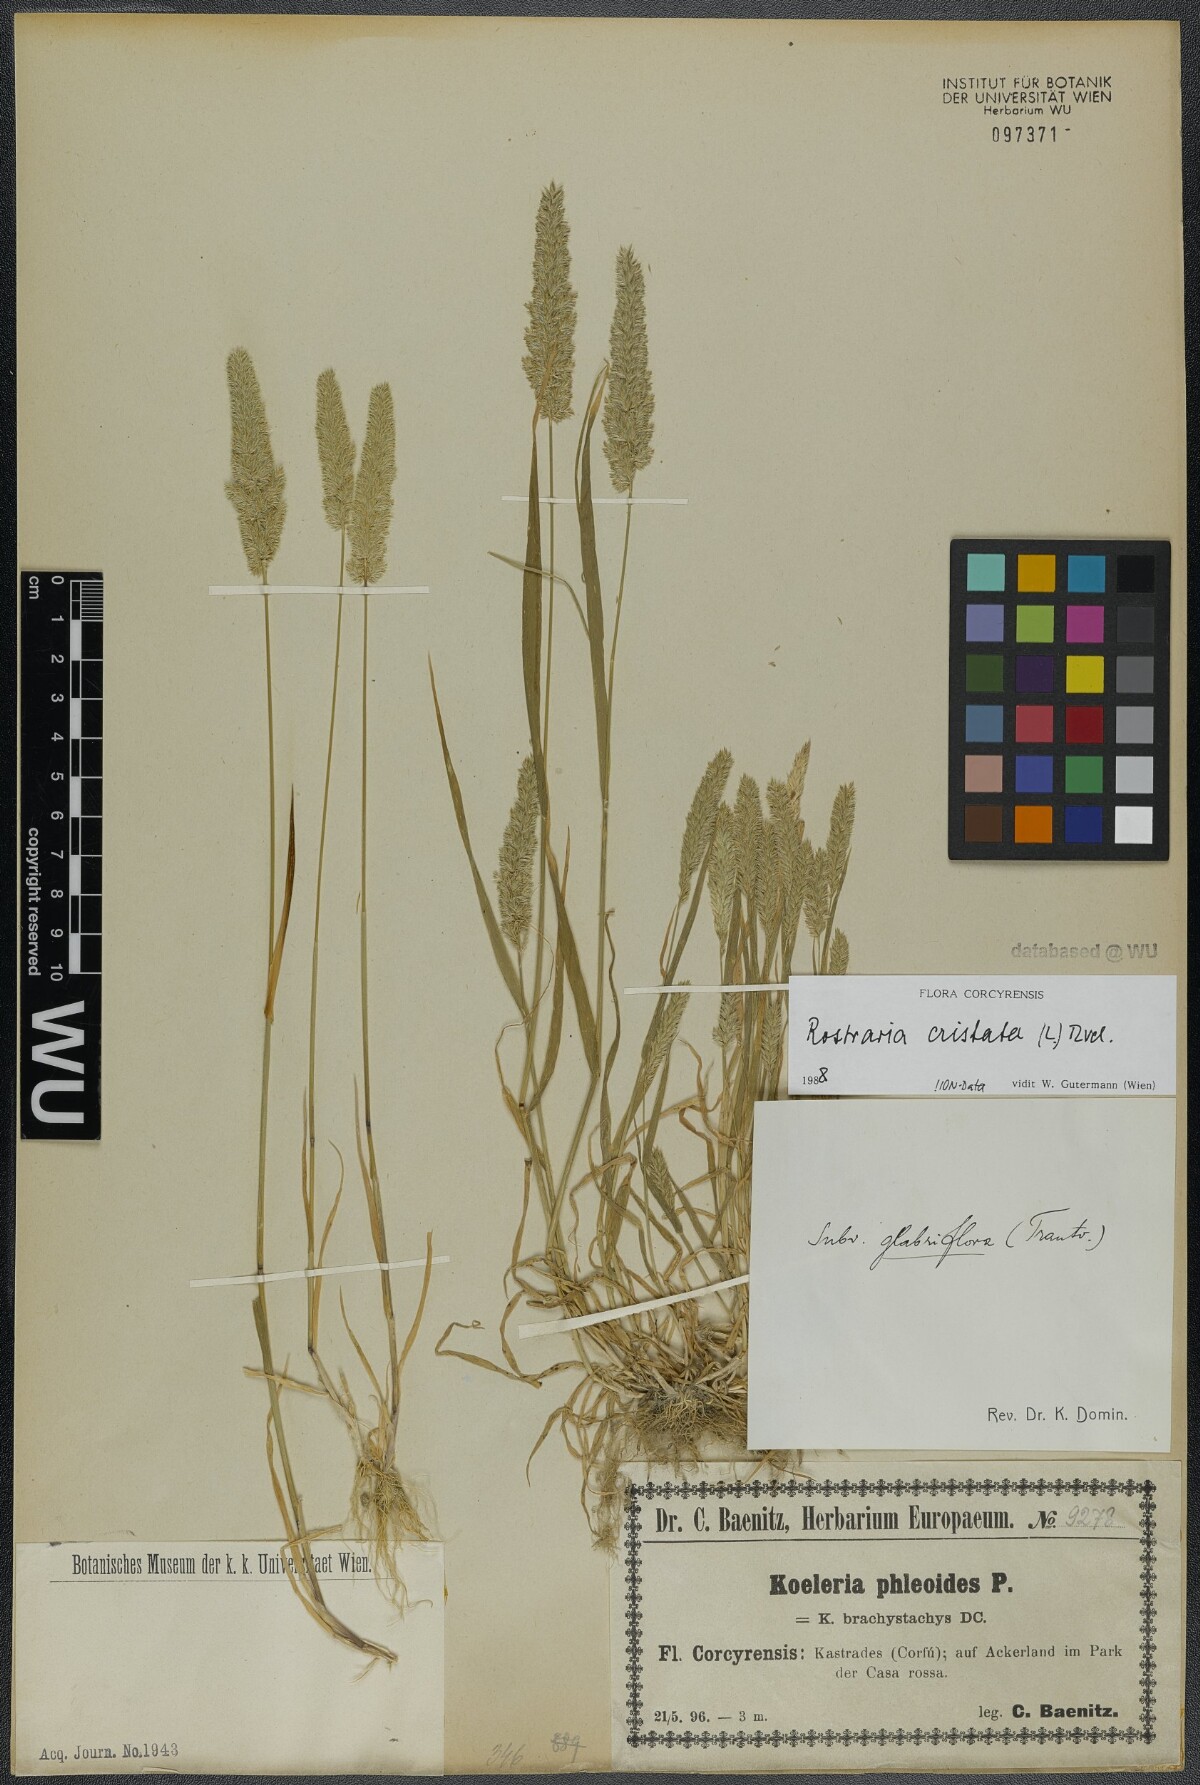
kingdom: Plantae
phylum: Tracheophyta
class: Liliopsida
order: Poales
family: Poaceae
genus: Rostraria
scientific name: Rostraria cristata
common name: Mediterranean hair-grass
